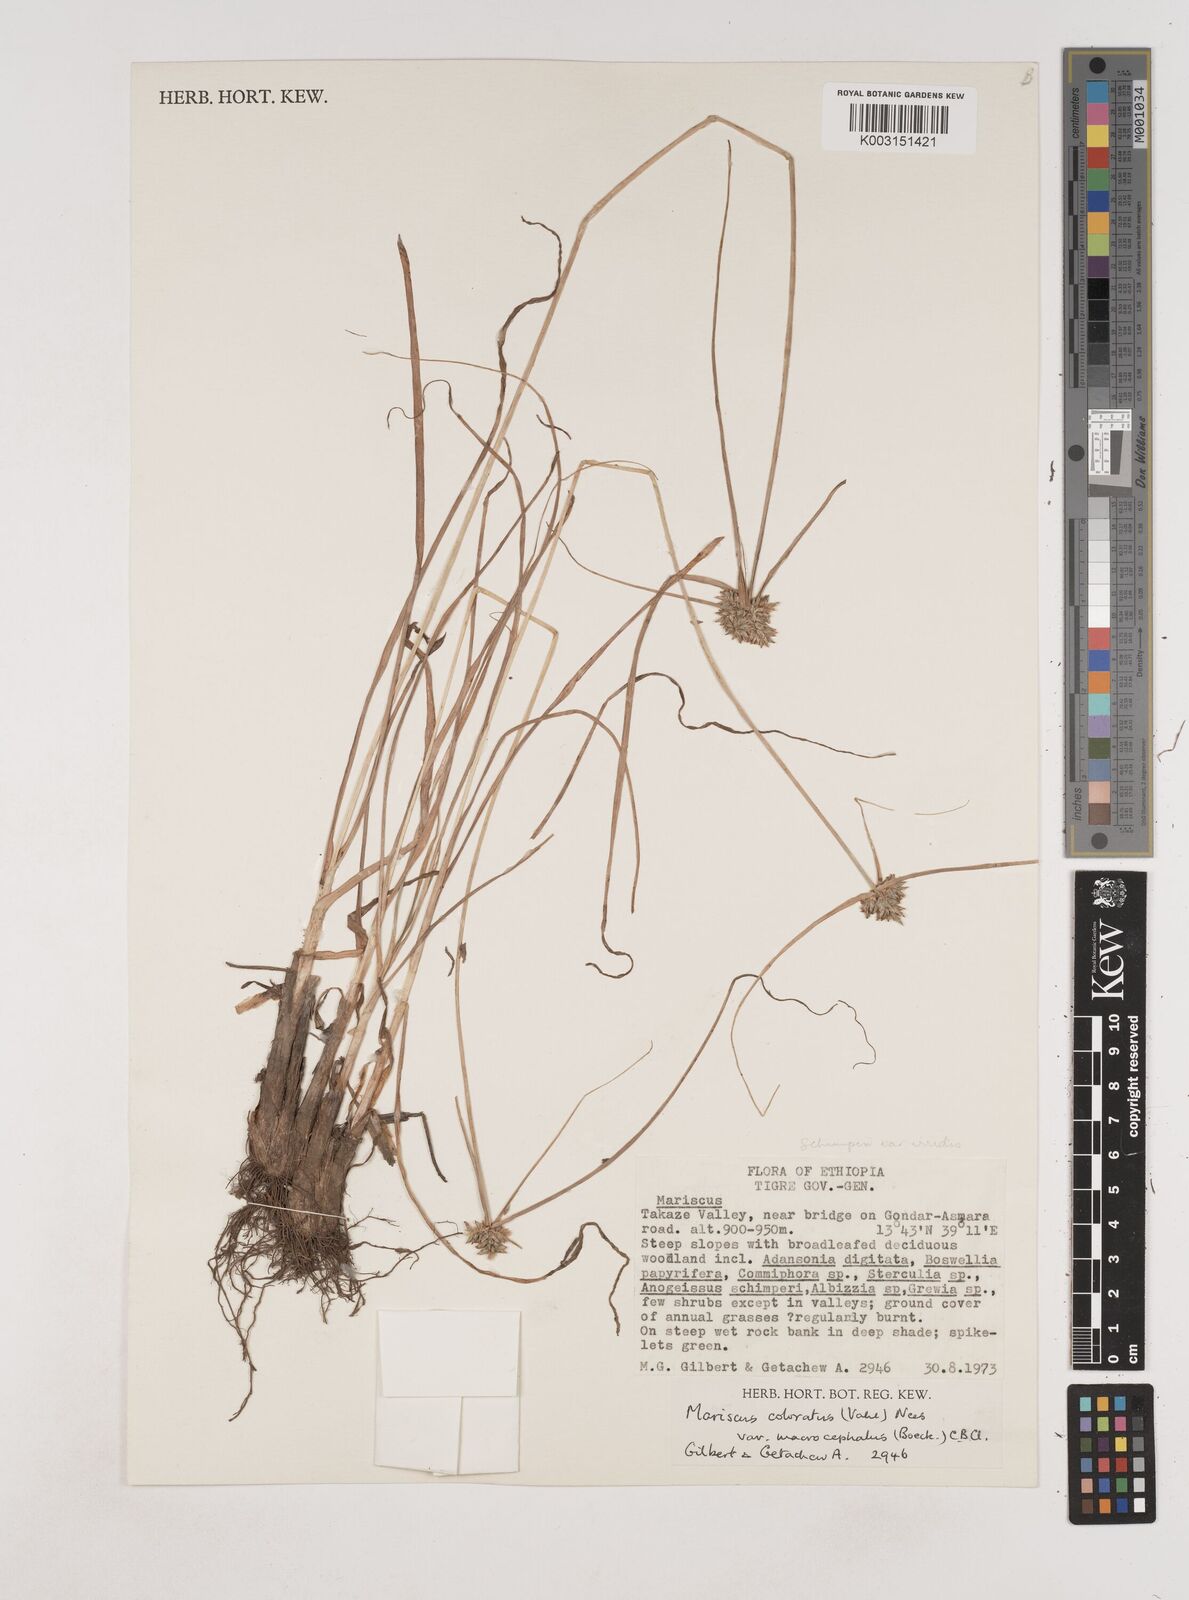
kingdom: Plantae
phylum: Tracheophyta
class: Liliopsida
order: Poales
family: Cyperaceae
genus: Cyperus
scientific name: Cyperus cruentus
